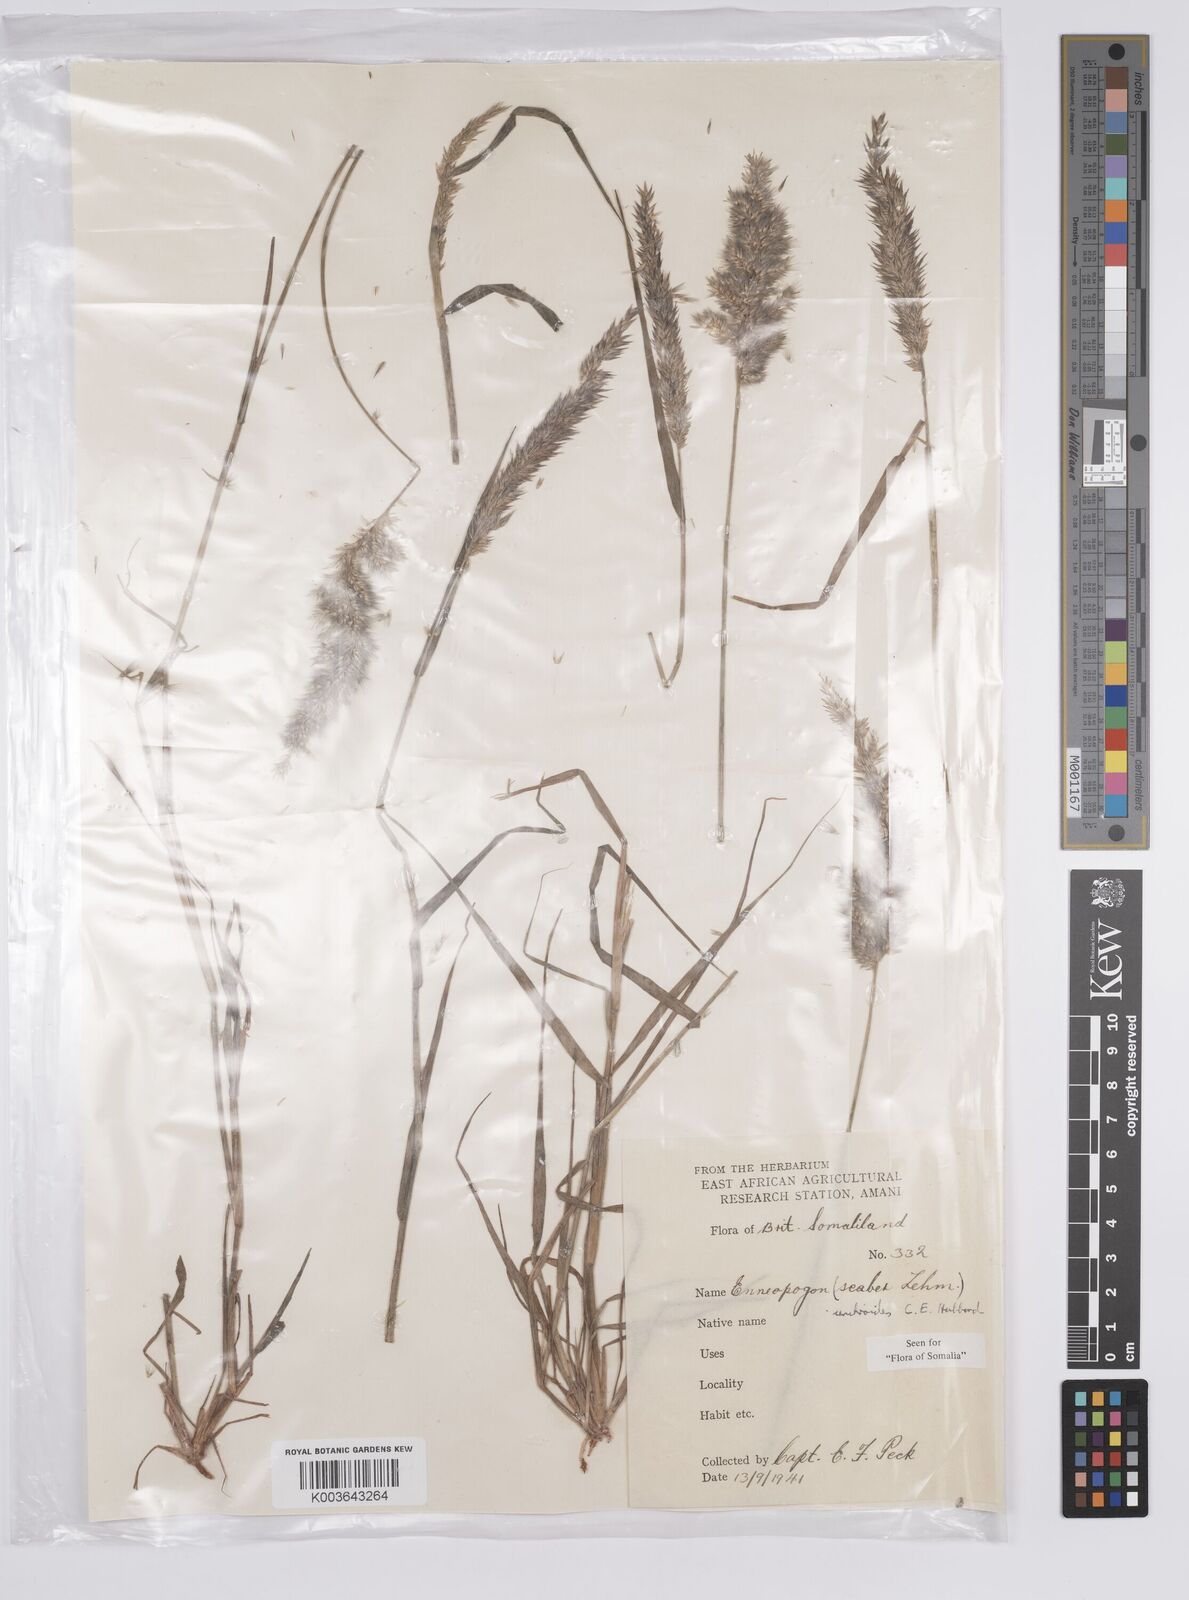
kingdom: Plantae
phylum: Tracheophyta
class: Liliopsida
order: Poales
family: Poaceae
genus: Enneapogon
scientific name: Enneapogon cenchroides
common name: Soft feather pappusgrass
